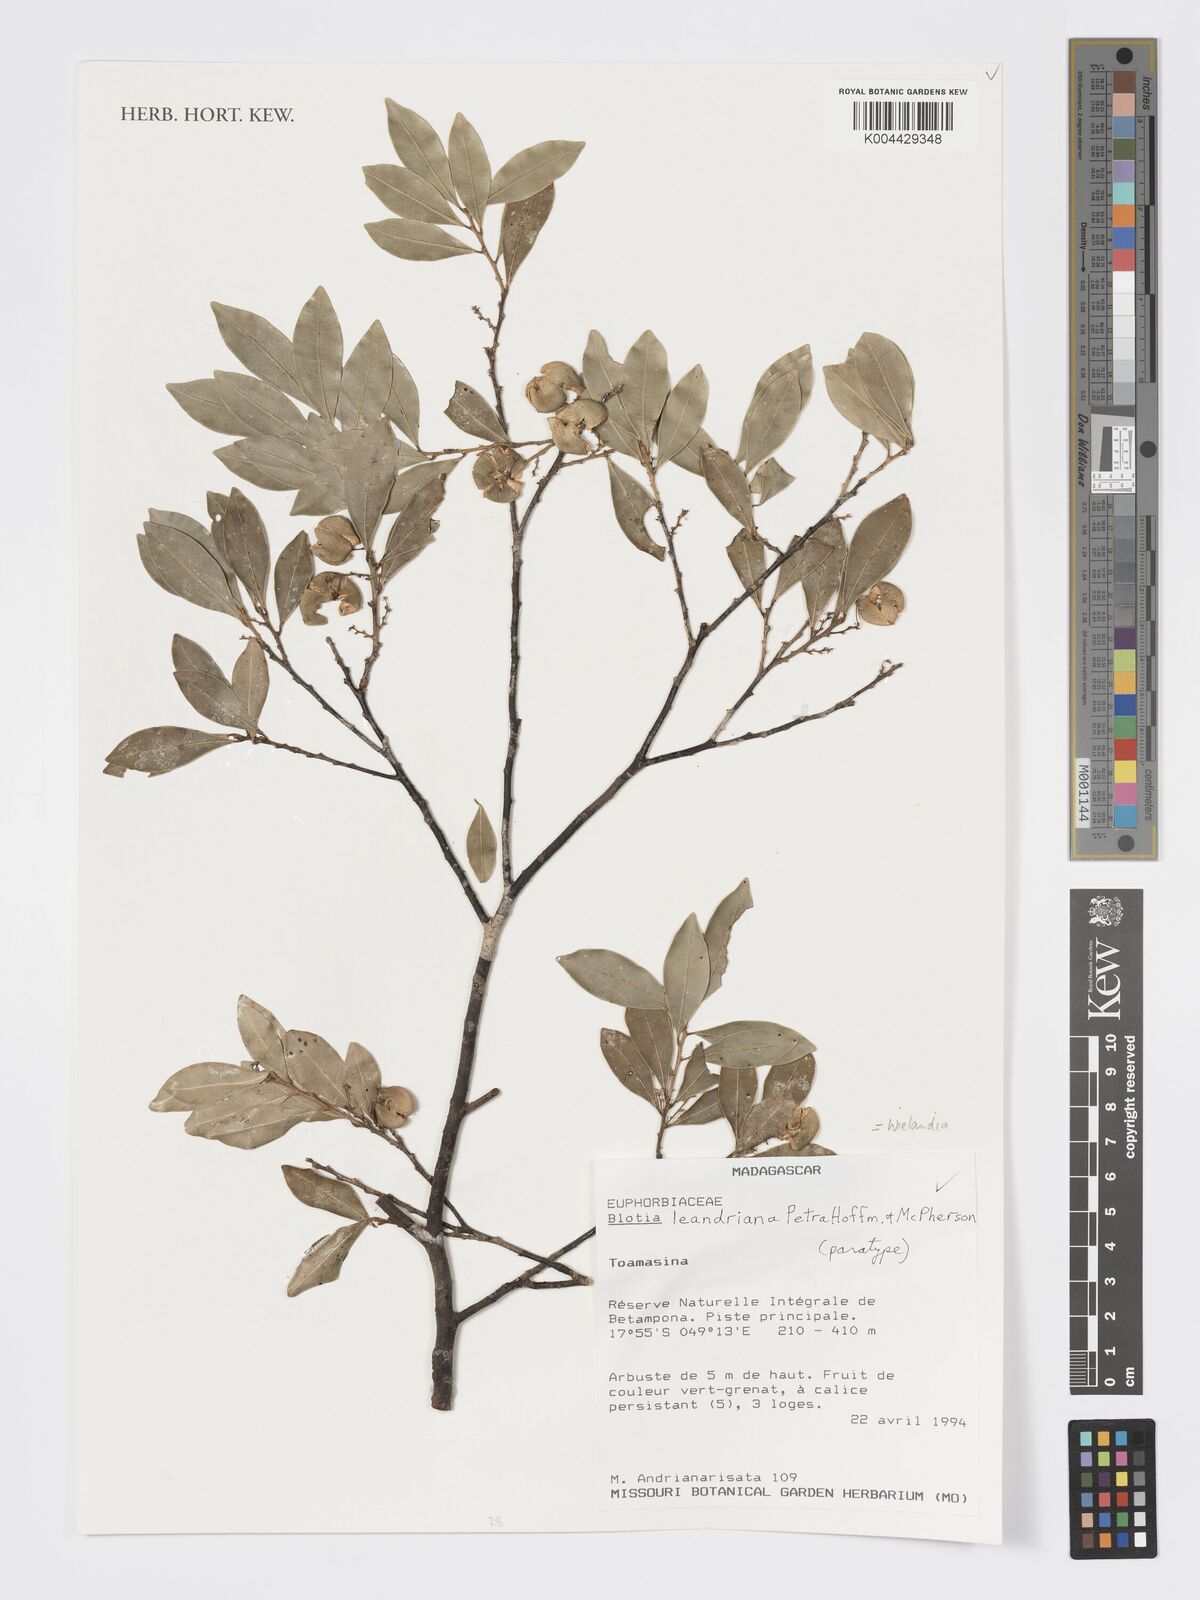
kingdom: Plantae
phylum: Tracheophyta
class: Magnoliopsida
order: Malpighiales
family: Phyllanthaceae
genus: Wielandia
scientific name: Wielandia leandriana
